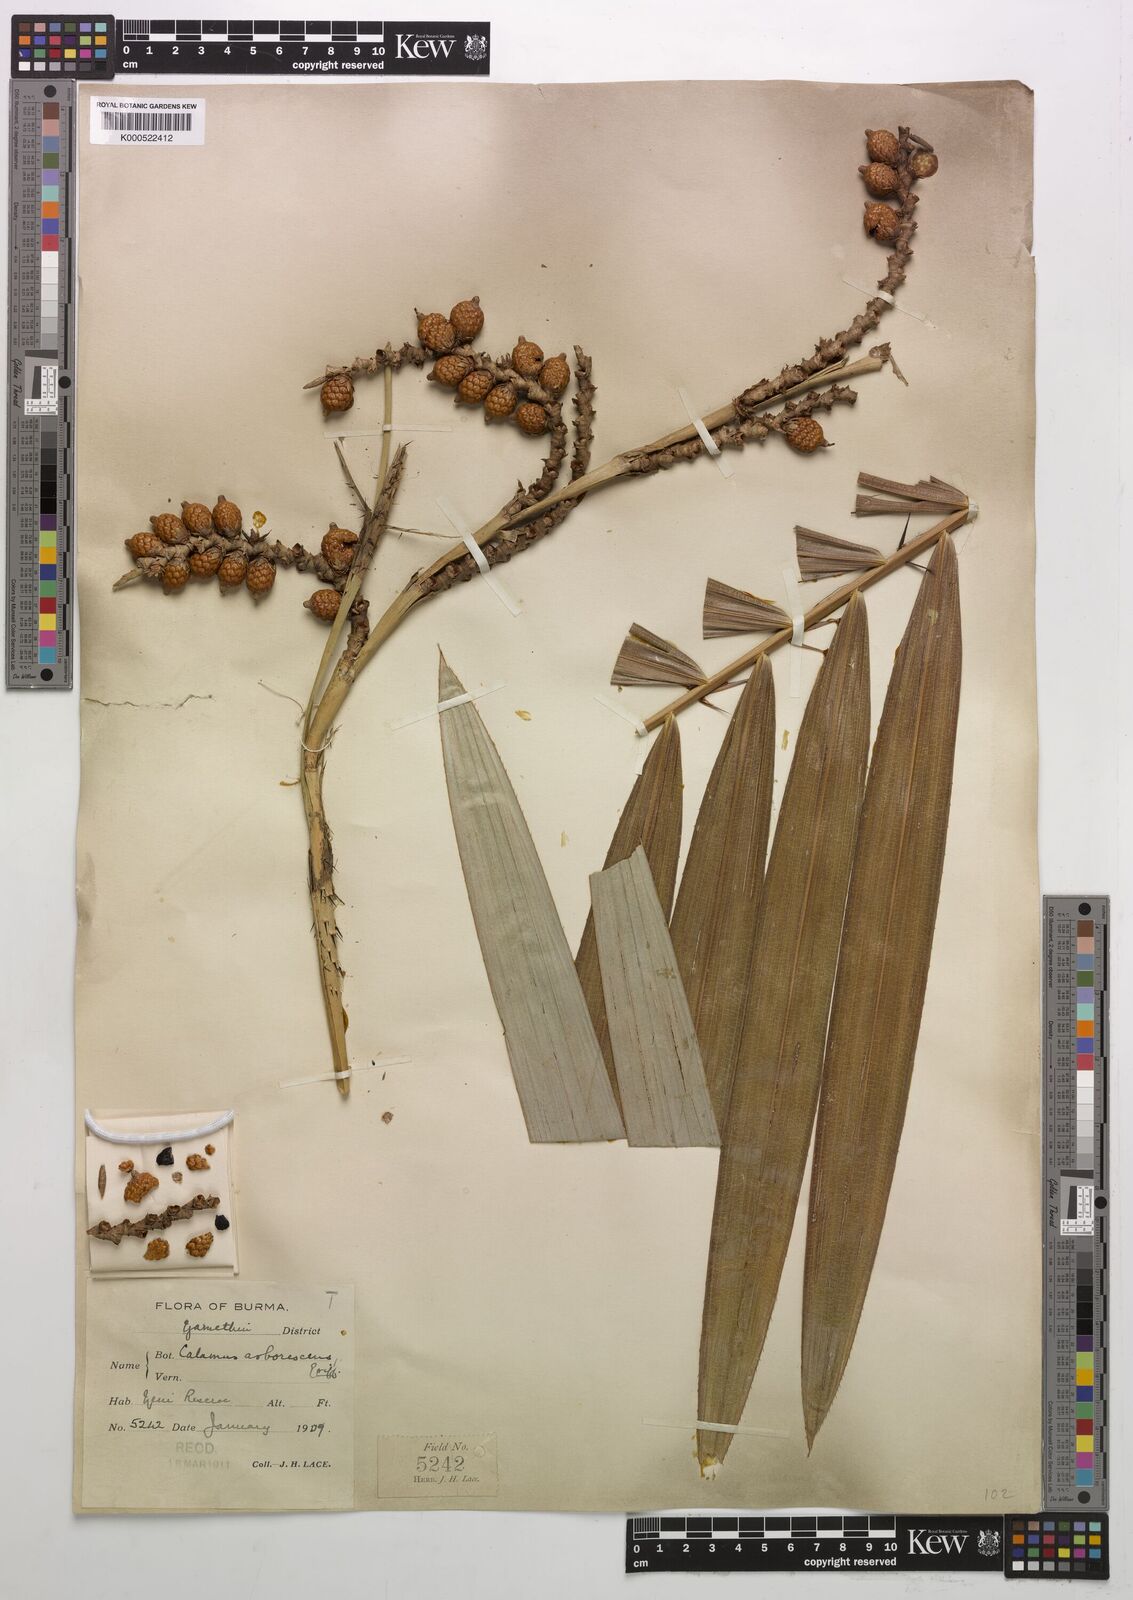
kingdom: Plantae
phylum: Tracheophyta
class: Liliopsida
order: Arecales
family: Arecaceae
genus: Calamus
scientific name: Calamus arborescens
